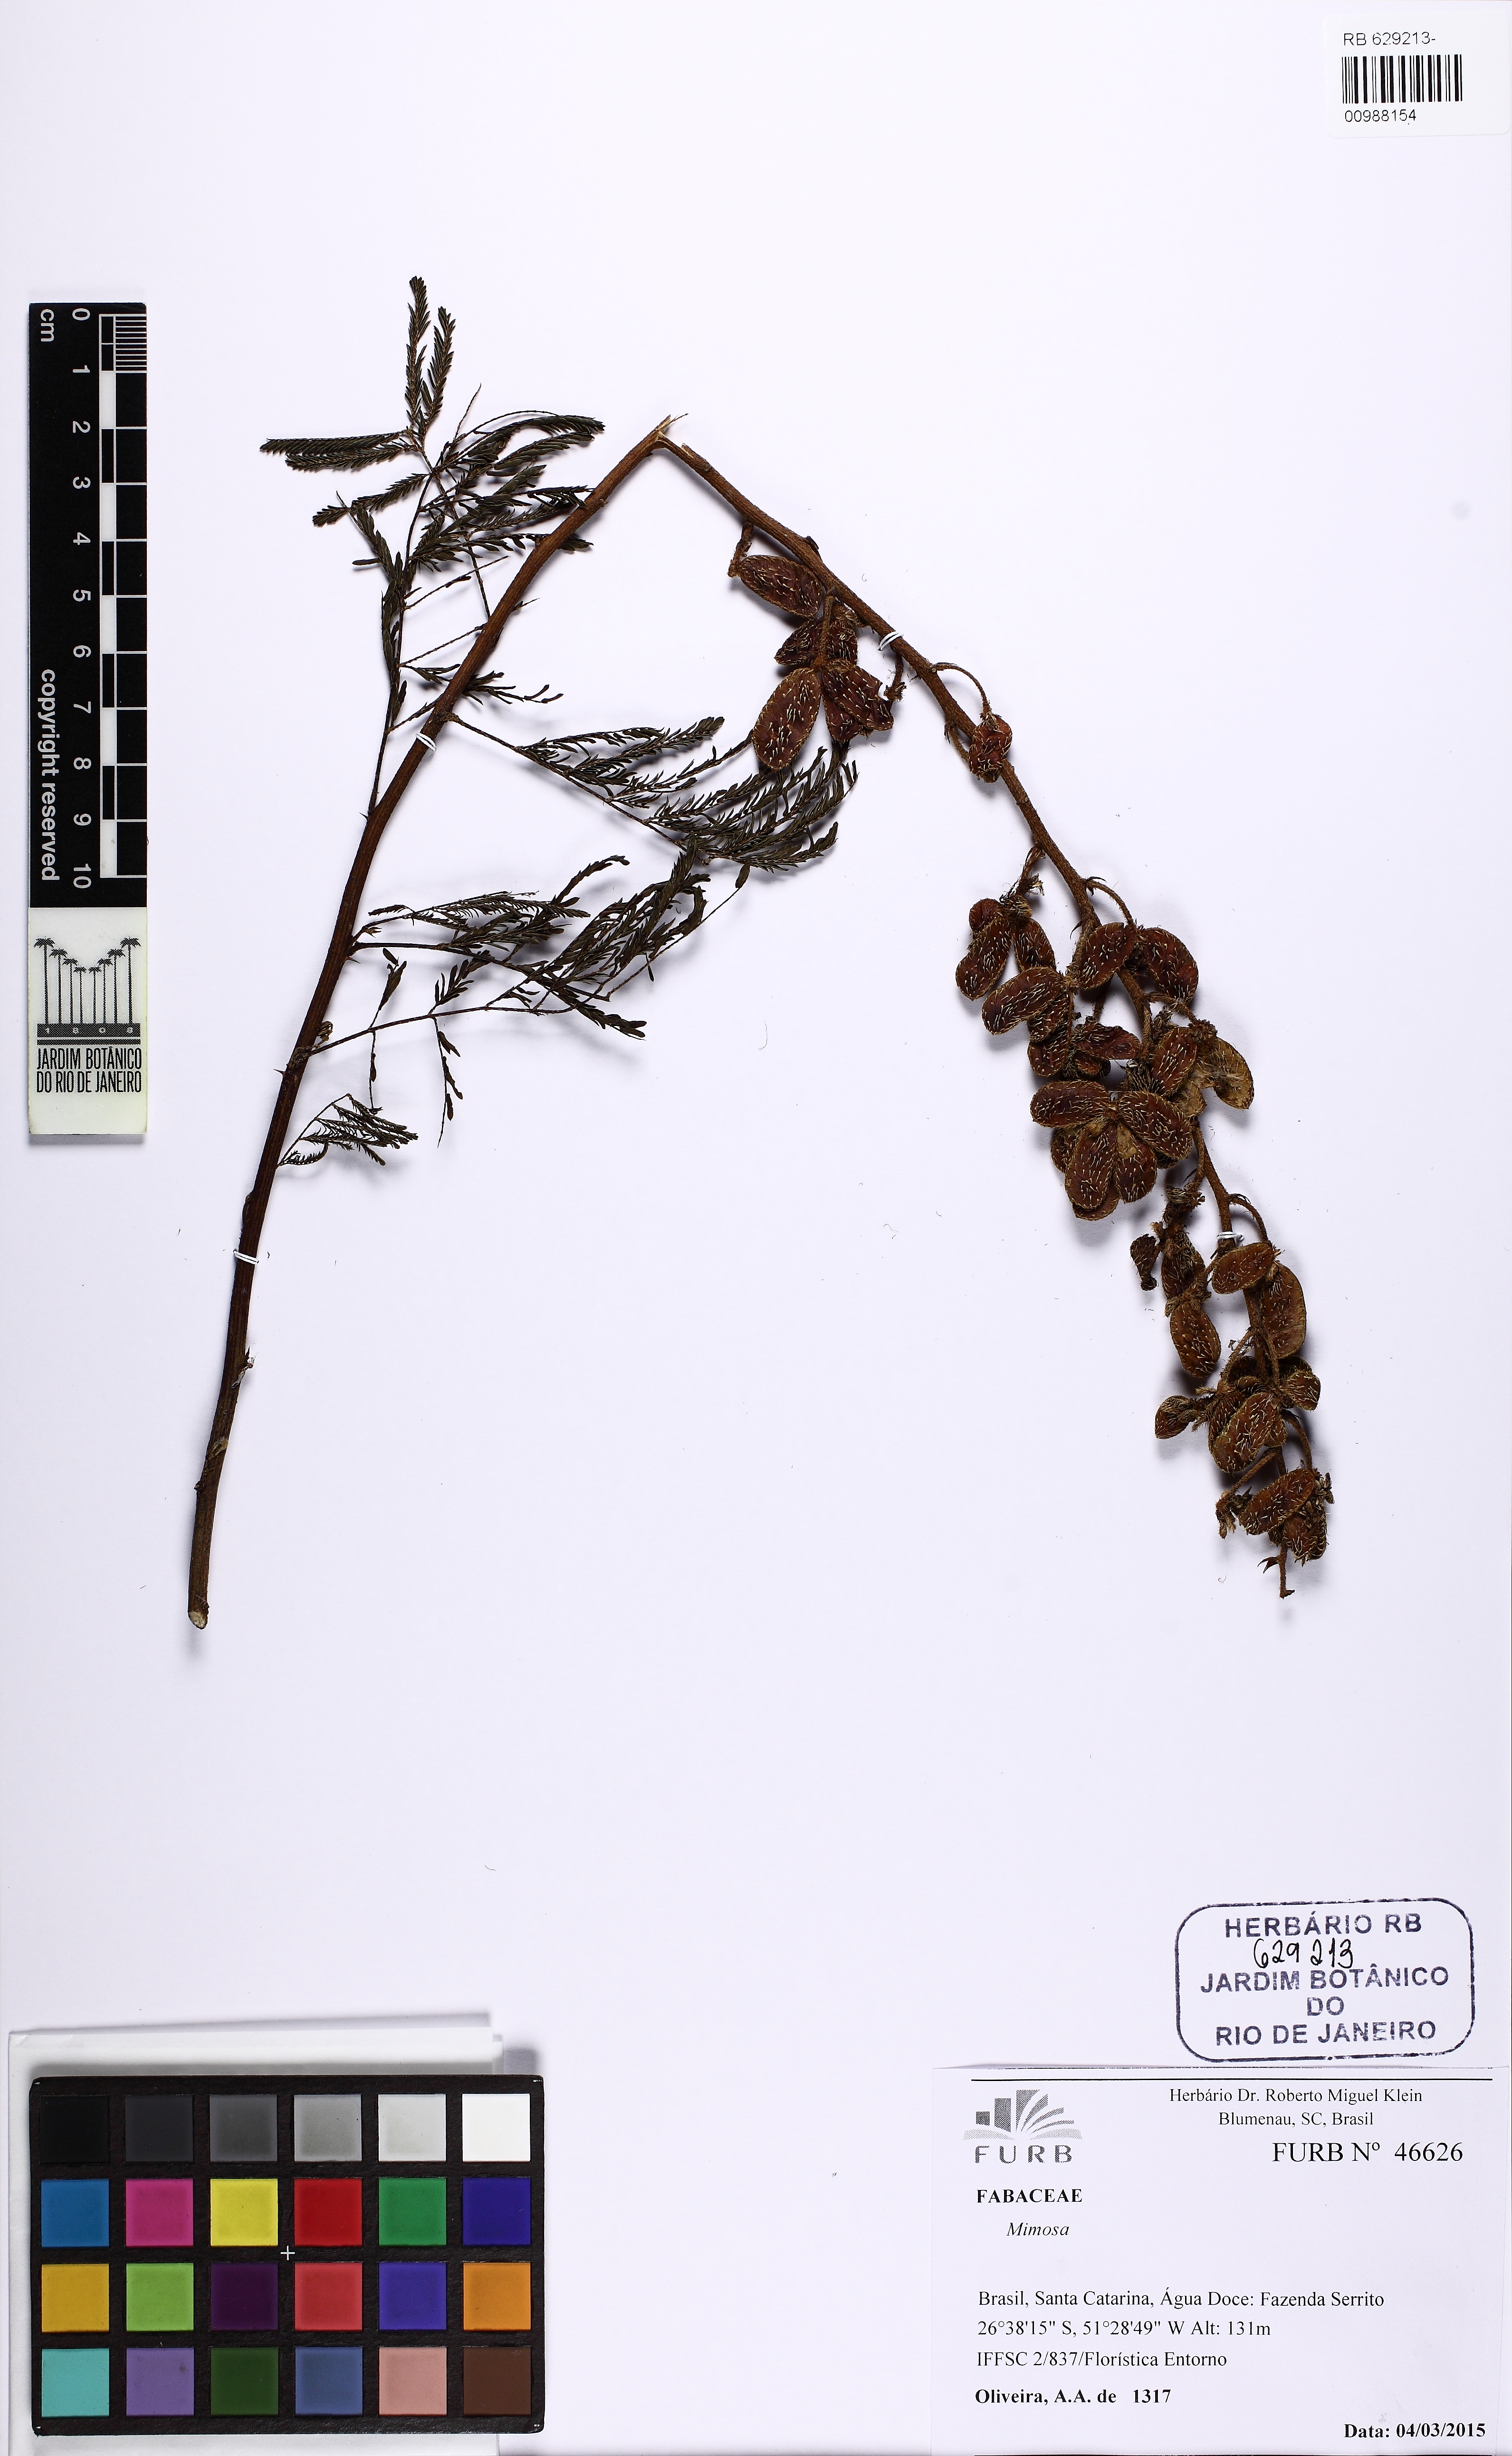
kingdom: Plantae
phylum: Tracheophyta
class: Magnoliopsida
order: Fabales
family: Fabaceae
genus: Mimosa
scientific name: Mimosa regnellii
